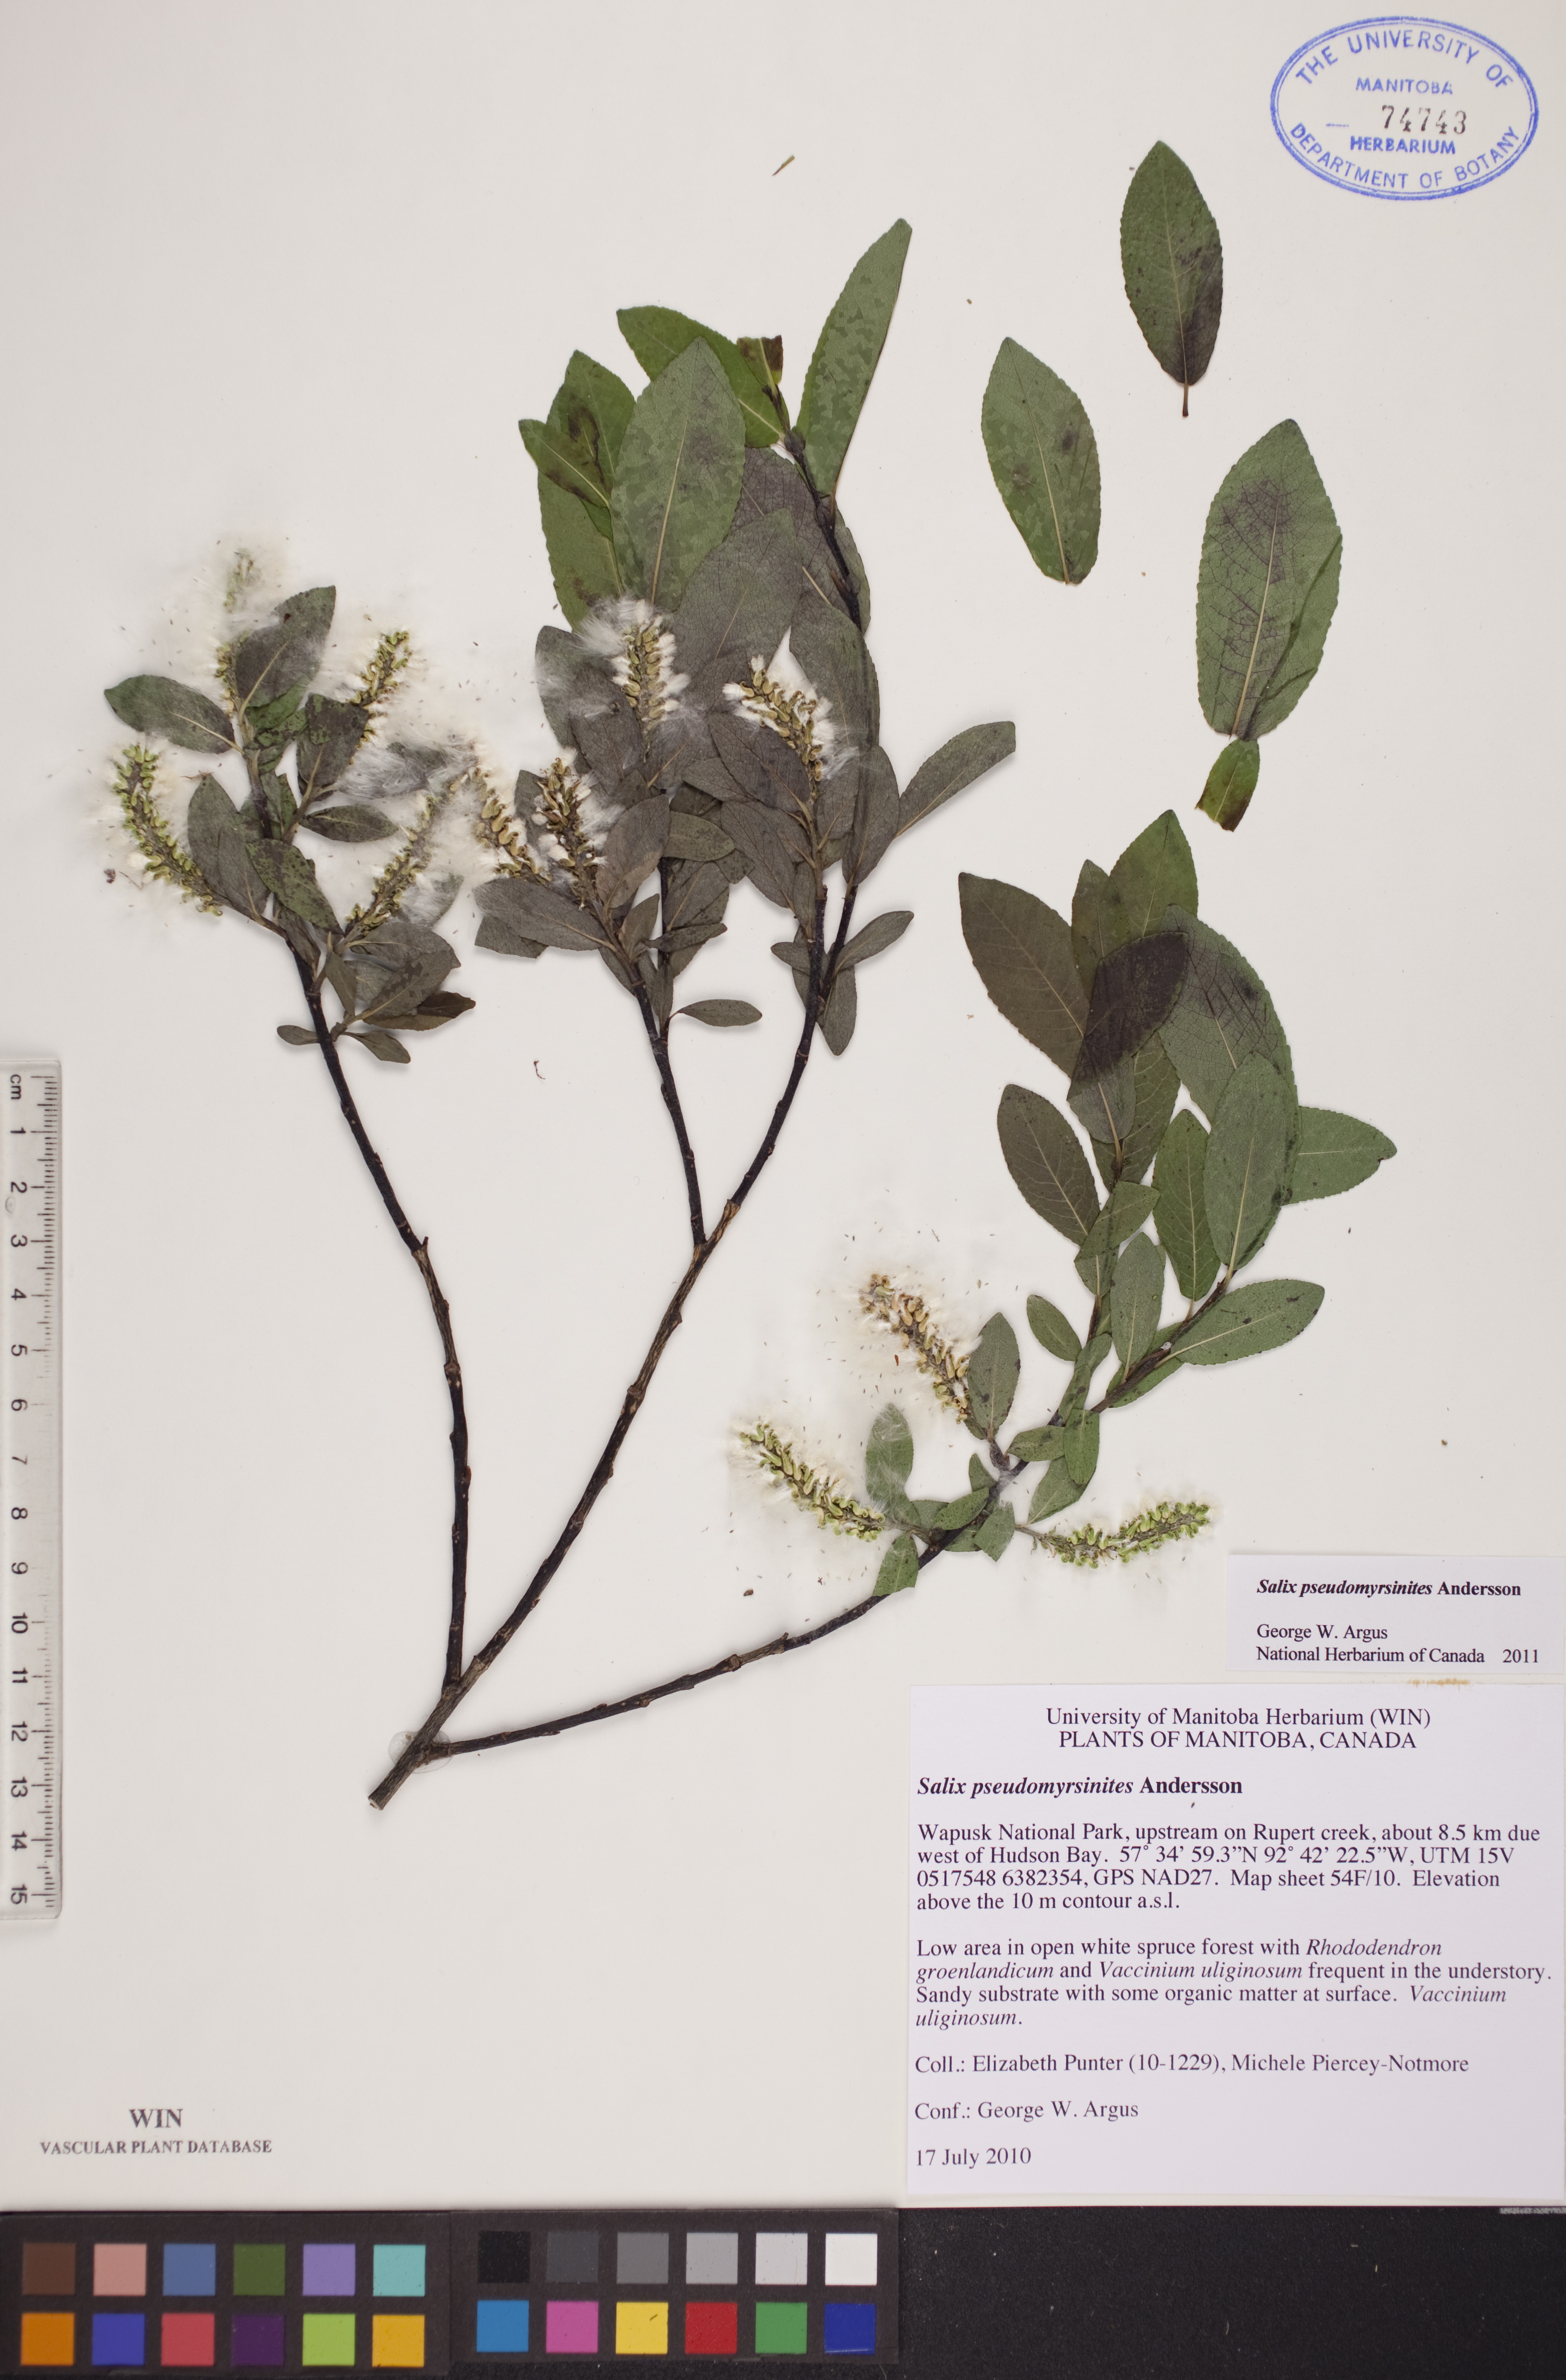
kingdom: Plantae
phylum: Tracheophyta
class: Magnoliopsida
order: Malpighiales
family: Salicaceae
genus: Salix
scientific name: Salix pseudomyrsinites
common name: Tall blueberry willow
